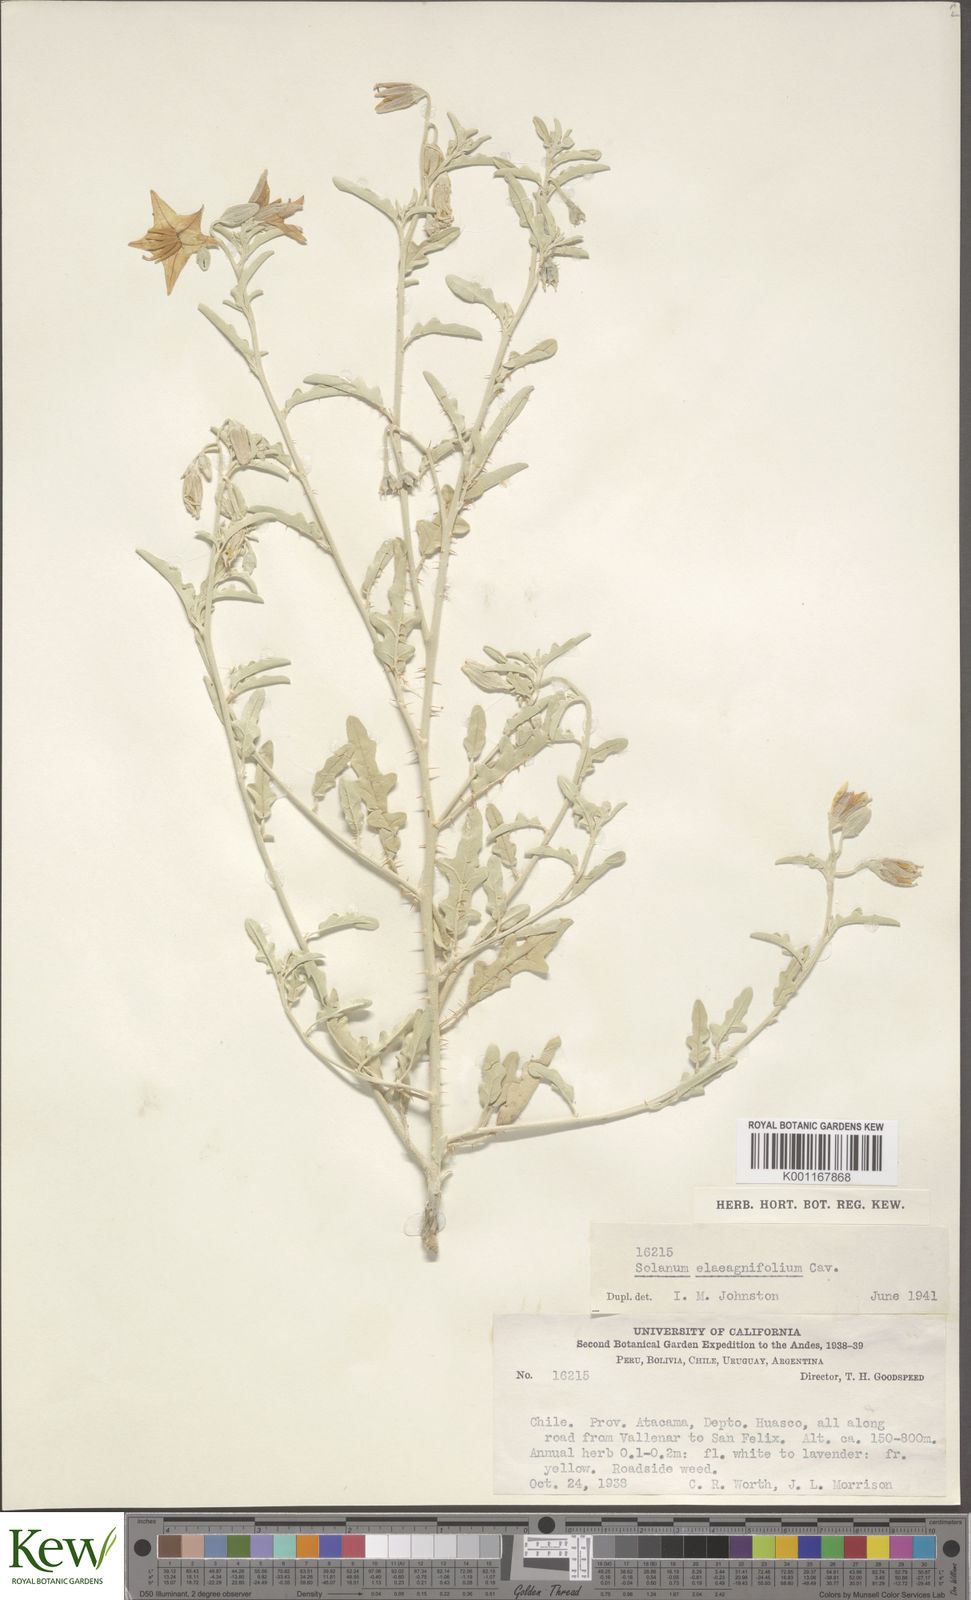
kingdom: Plantae
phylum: Tracheophyta
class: Magnoliopsida
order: Solanales
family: Solanaceae
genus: Solanum
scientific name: Solanum elaeagnifolium
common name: Silverleaf nightshade
